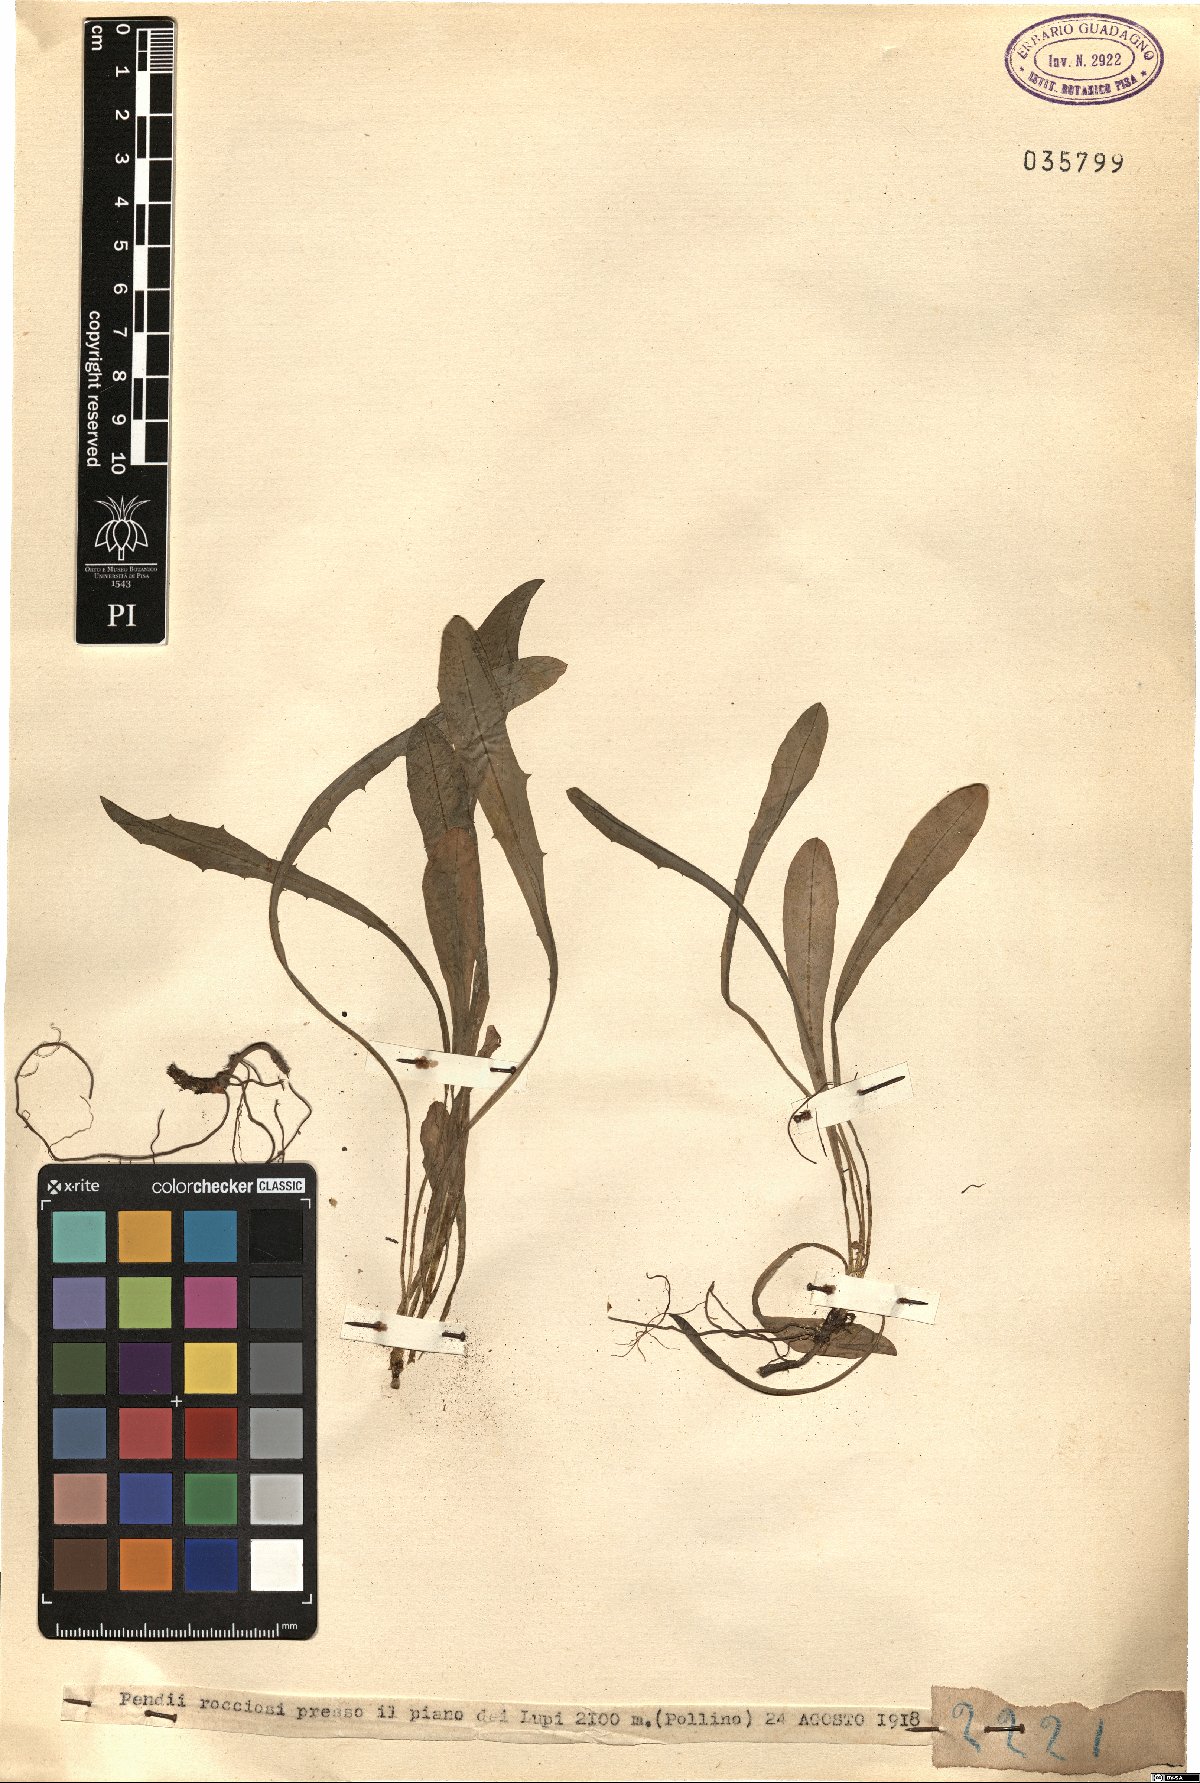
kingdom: Plantae
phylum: Tracheophyta
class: Magnoliopsida
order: Asterales
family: Asteraceae
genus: Taraxacum
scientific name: Taraxacum
